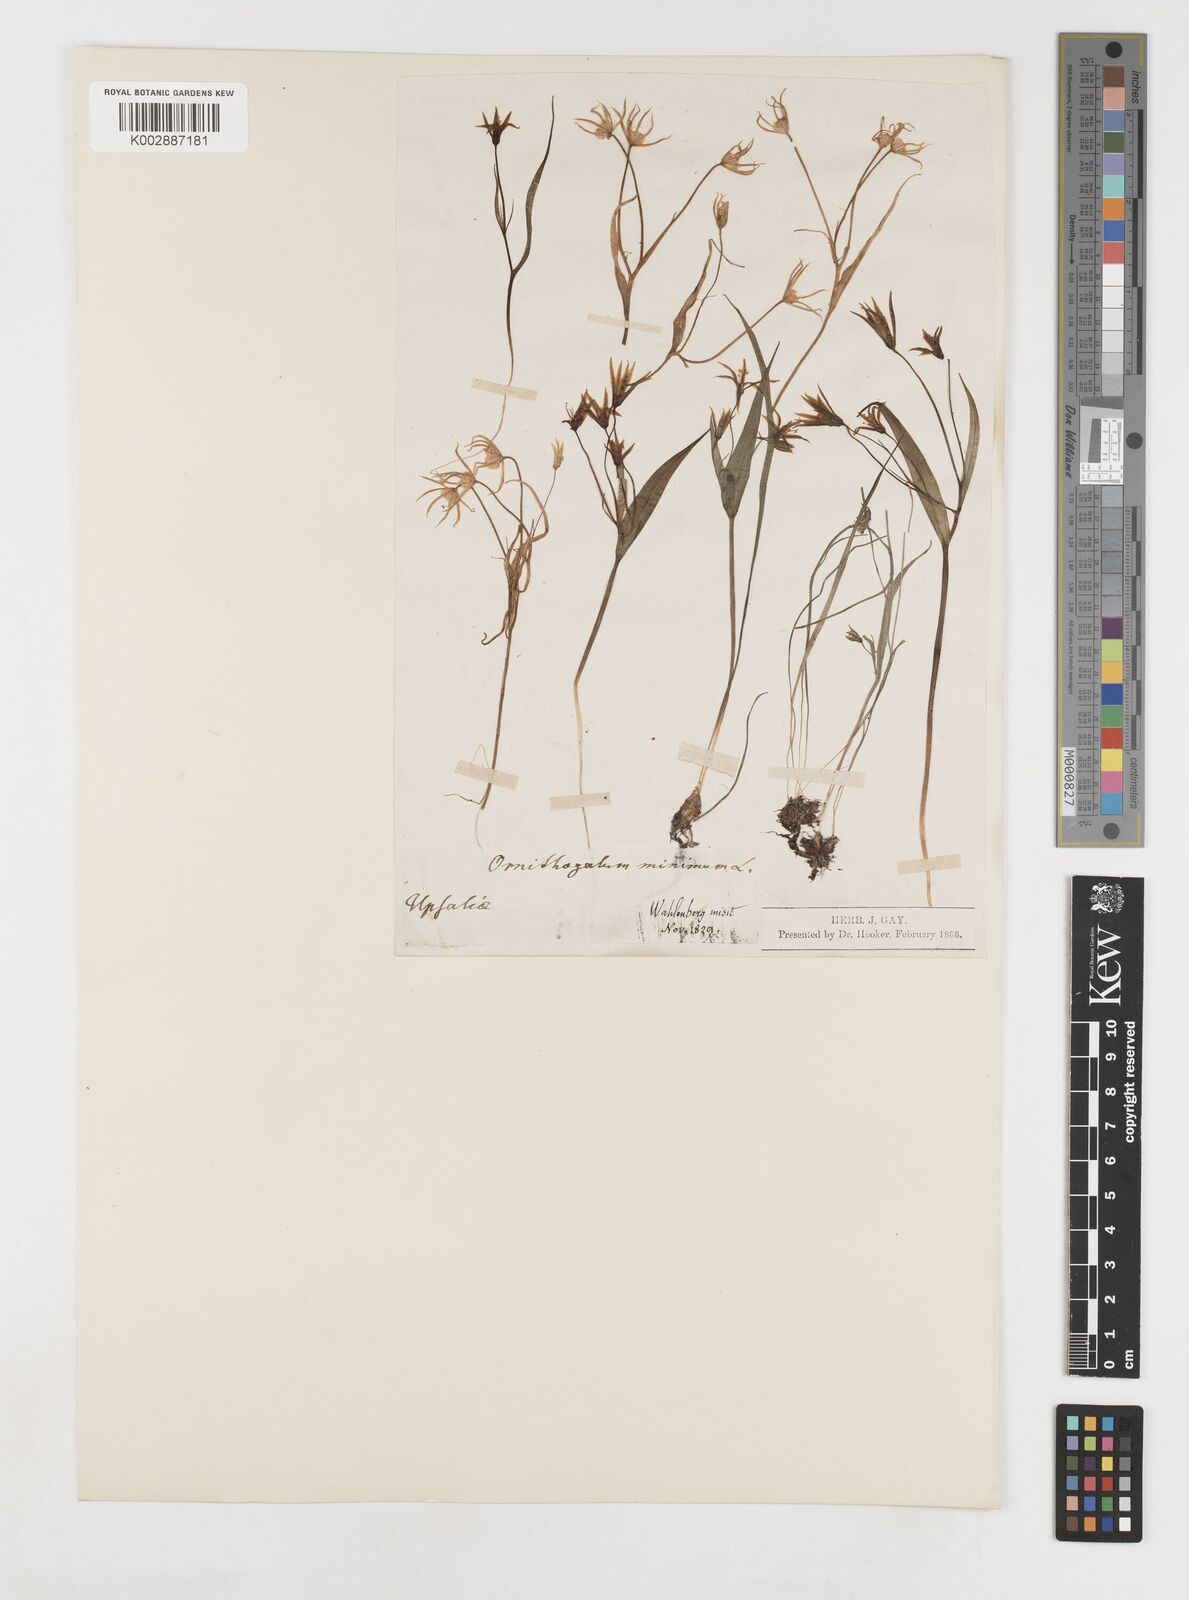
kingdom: Plantae
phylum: Tracheophyta
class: Liliopsida
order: Liliales
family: Liliaceae
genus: Gagea
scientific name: Gagea minima
